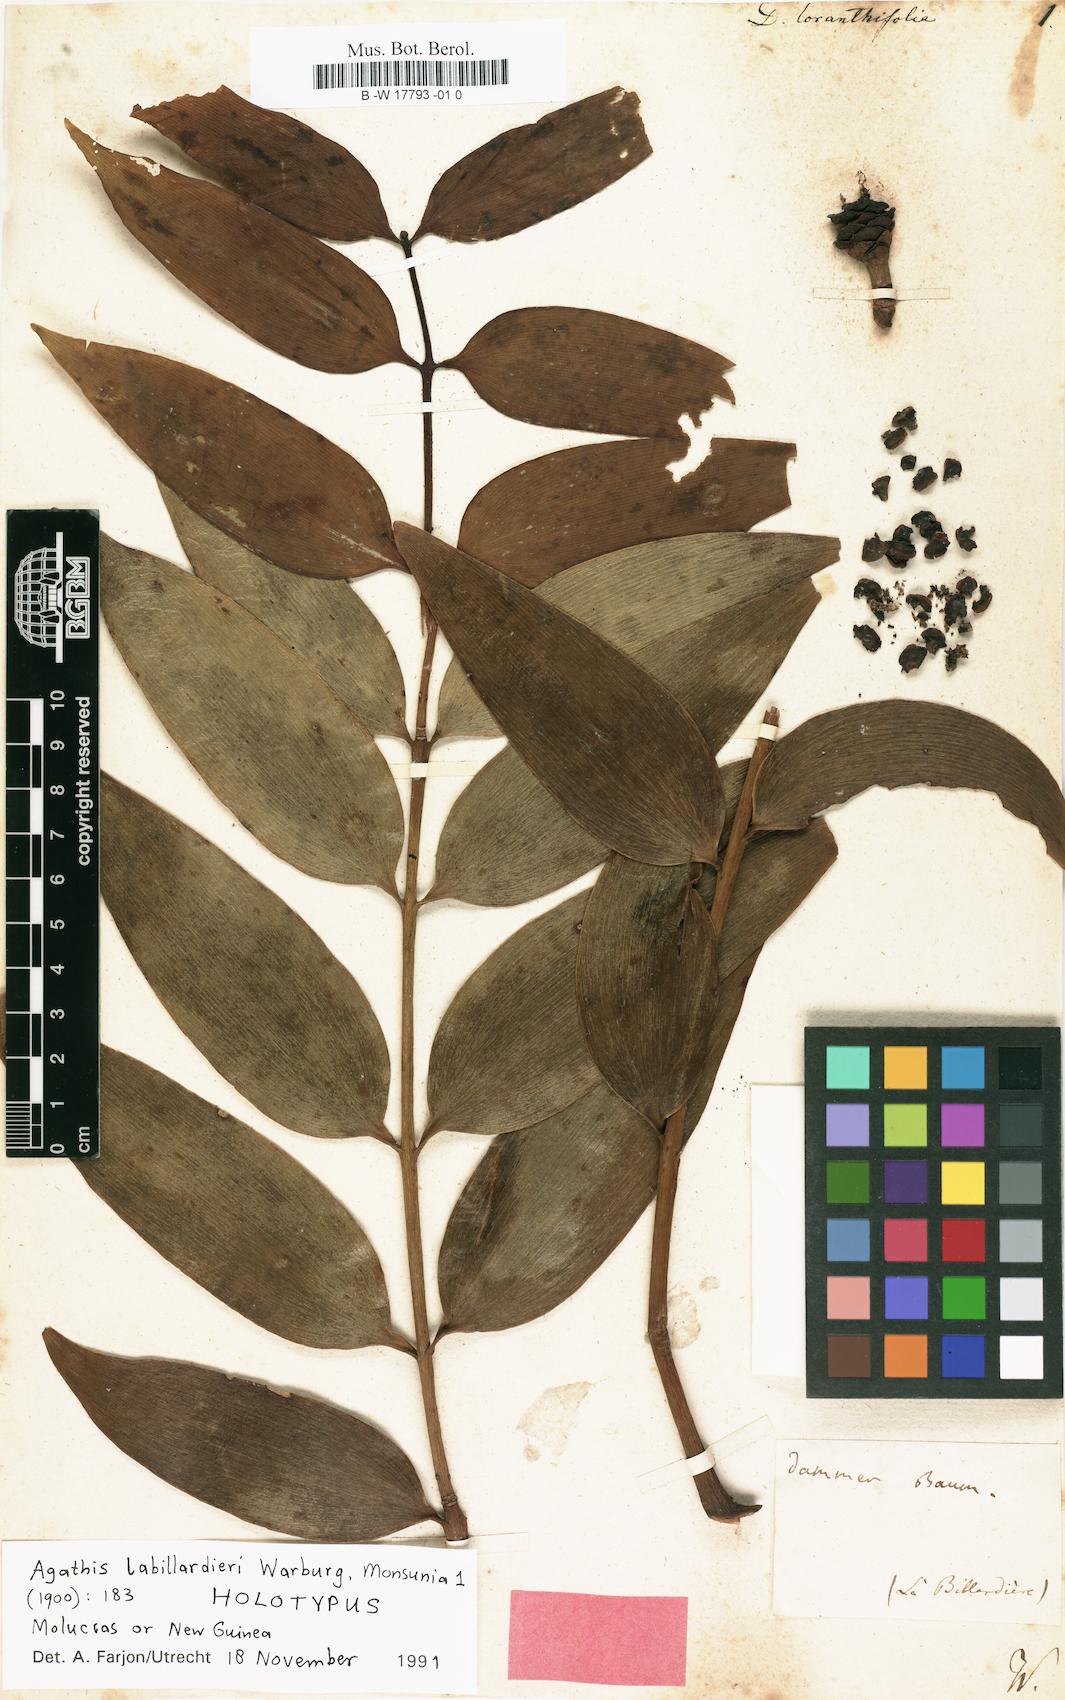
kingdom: Plantae
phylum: Tracheophyta
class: Pinopsida
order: Pinales
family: Araucariaceae
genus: Agathis
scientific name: Agathis dammara
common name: Amboina pitch tree
